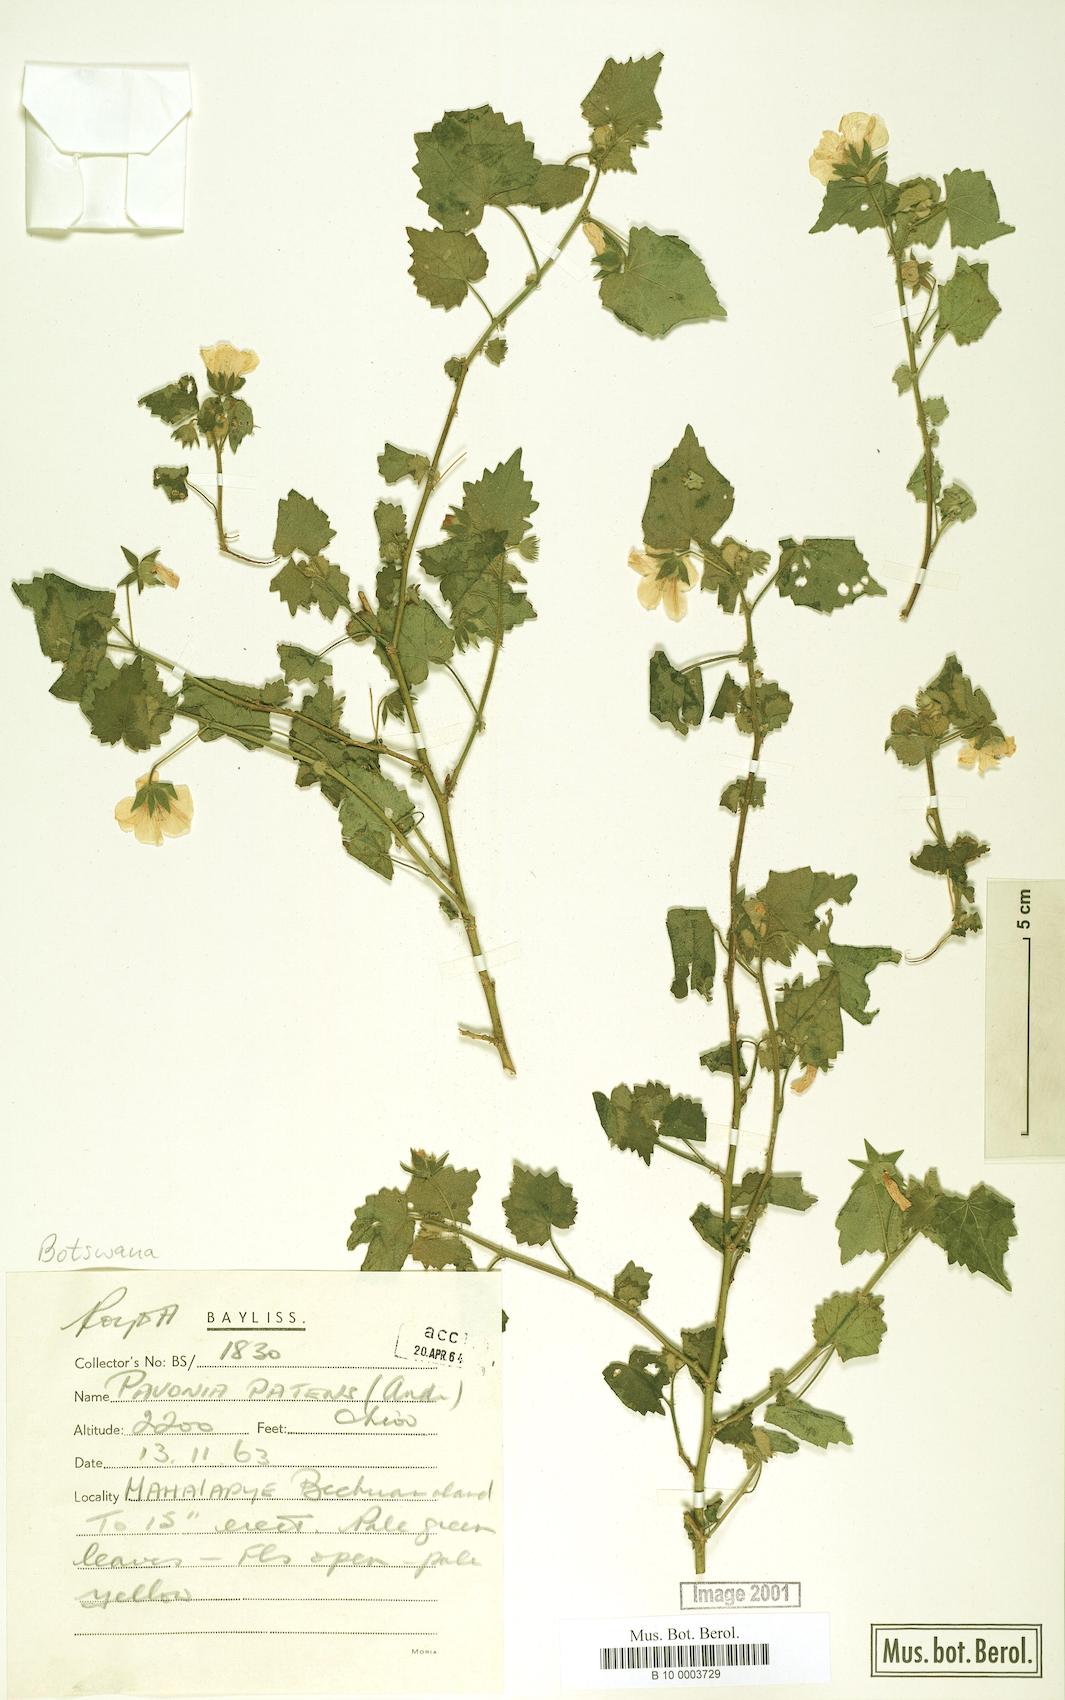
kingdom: Plantae
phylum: Tracheophyta
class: Magnoliopsida
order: Malvales
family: Malvaceae
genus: Abutilon
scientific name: Abutilon mauritianum
